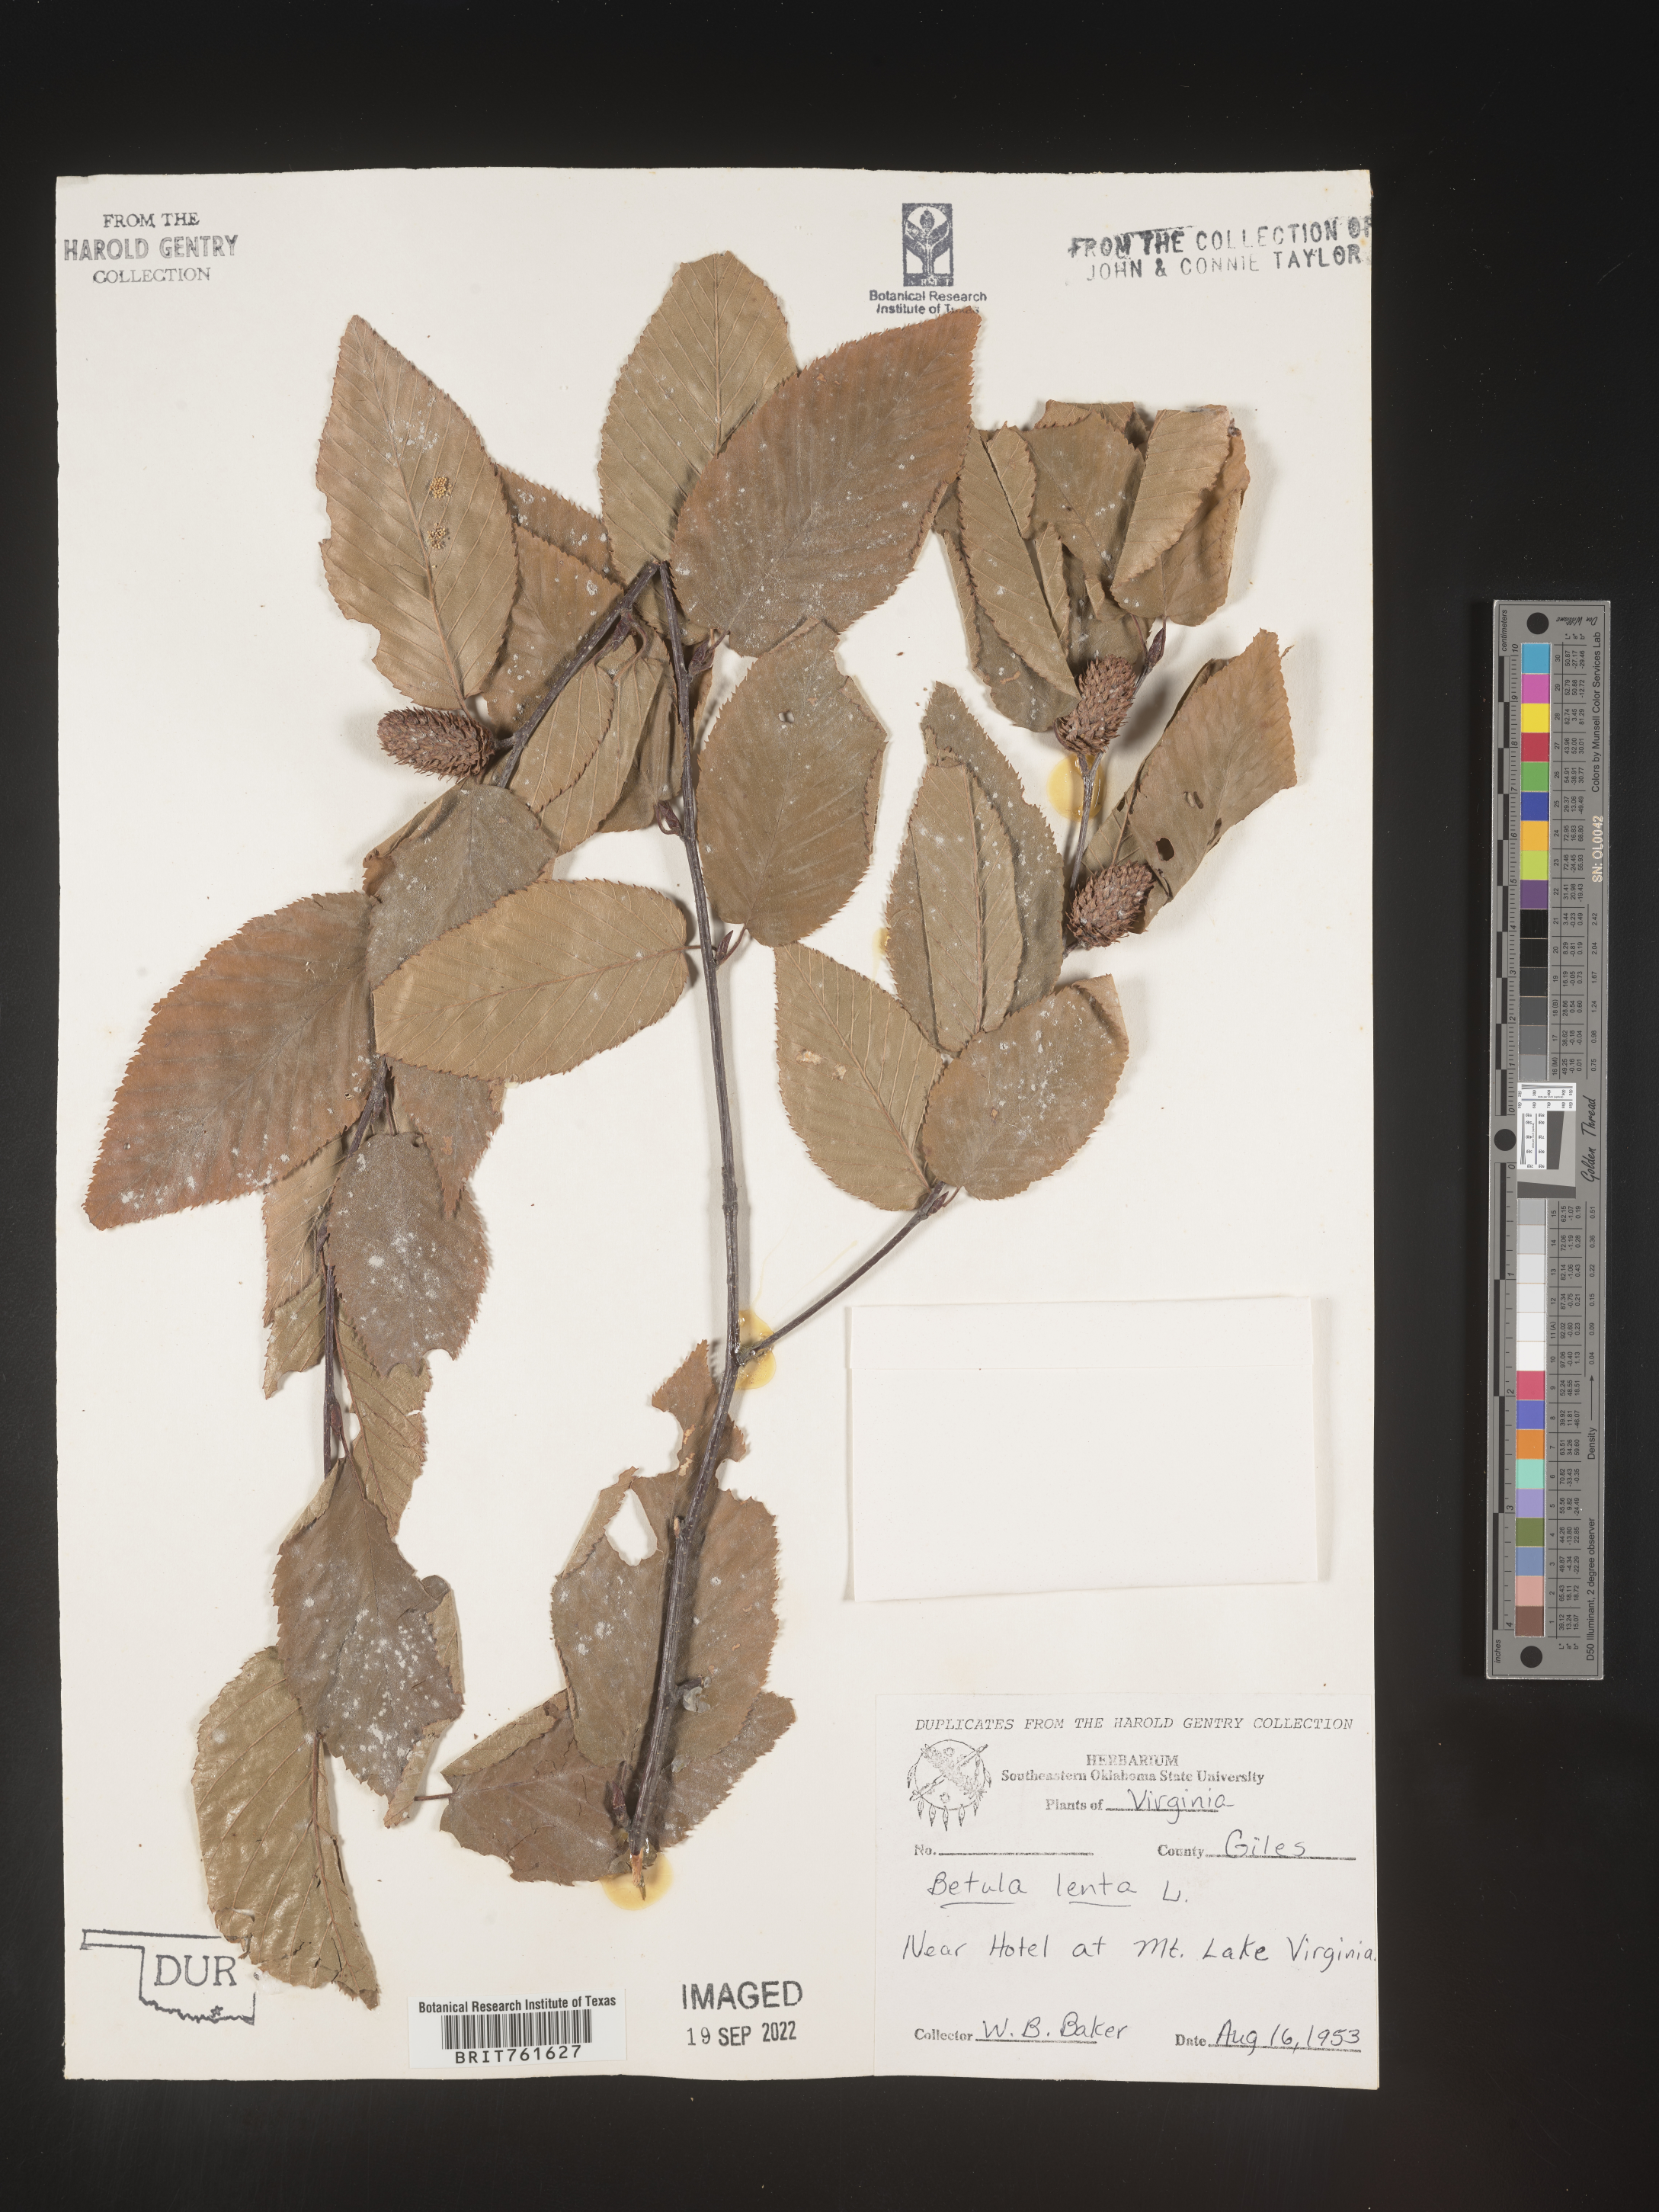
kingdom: Plantae
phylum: Tracheophyta
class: Magnoliopsida
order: Fagales
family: Betulaceae
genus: Betula
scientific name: Betula lenta
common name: Black birch
